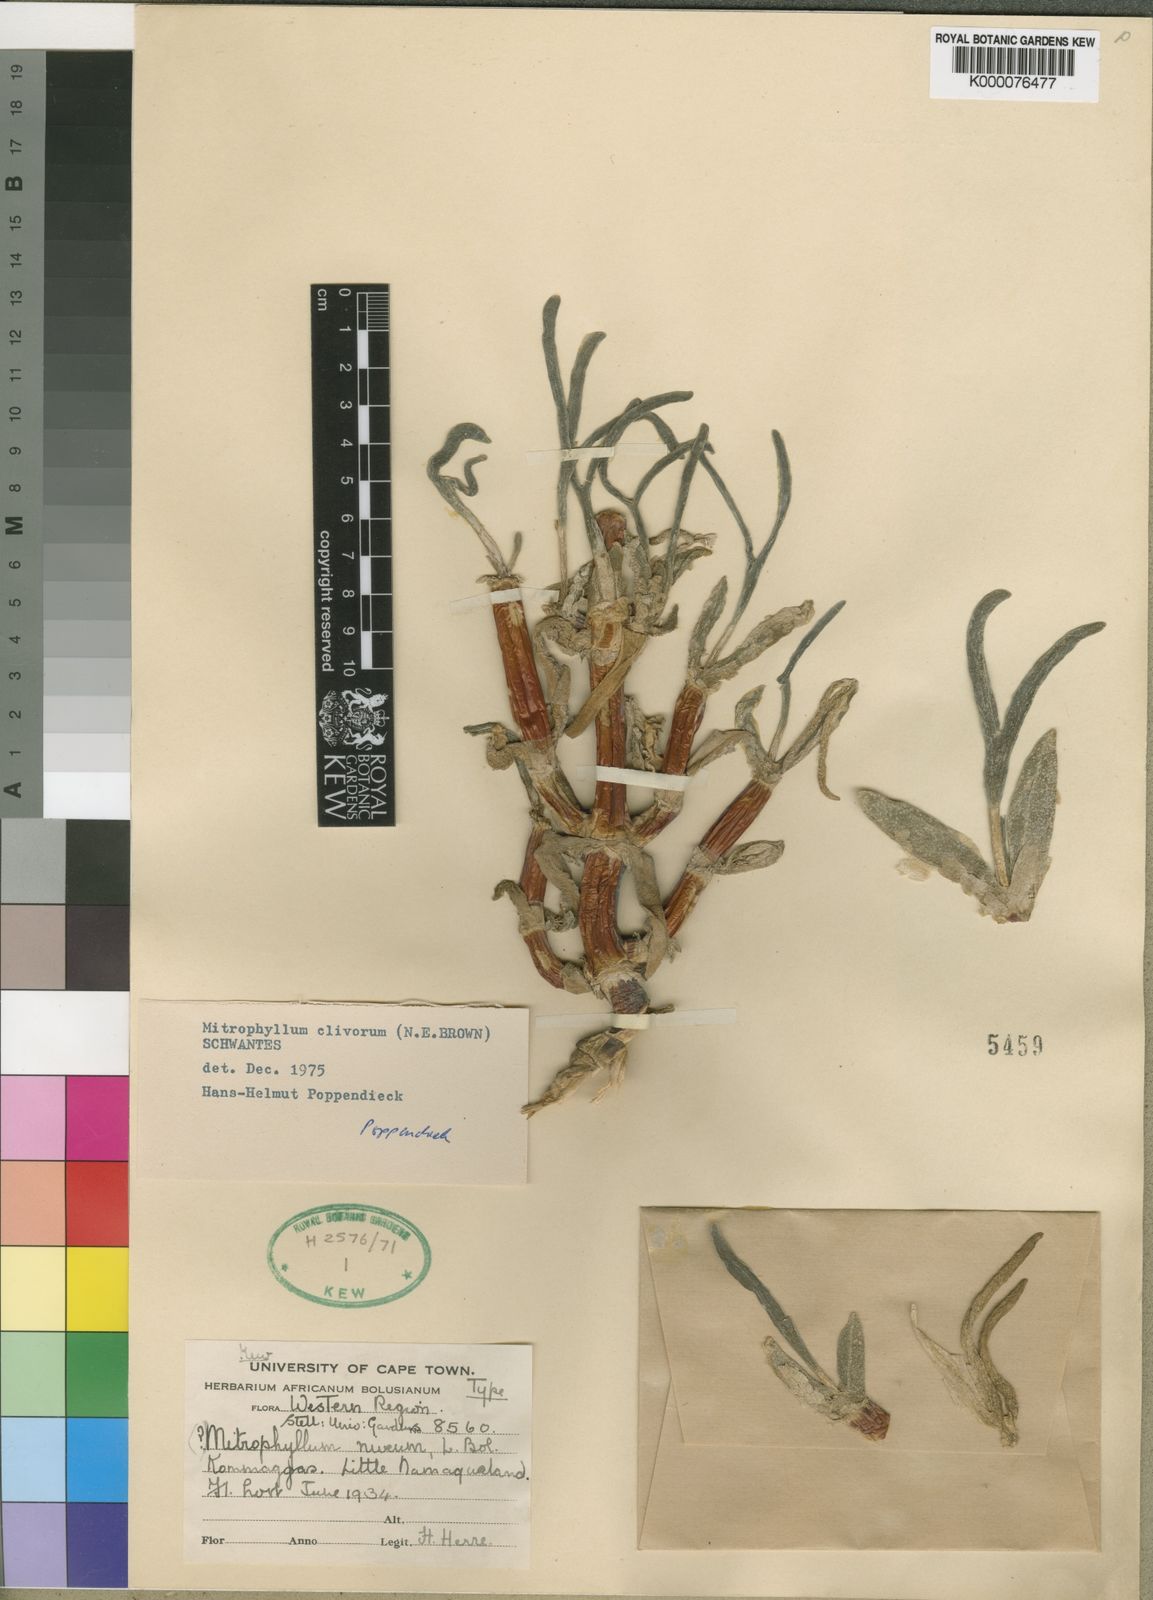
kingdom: Plantae
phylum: Tracheophyta
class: Magnoliopsida
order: Caryophyllales
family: Aizoaceae
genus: Mitrophyllum
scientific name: Mitrophyllum clivorum
